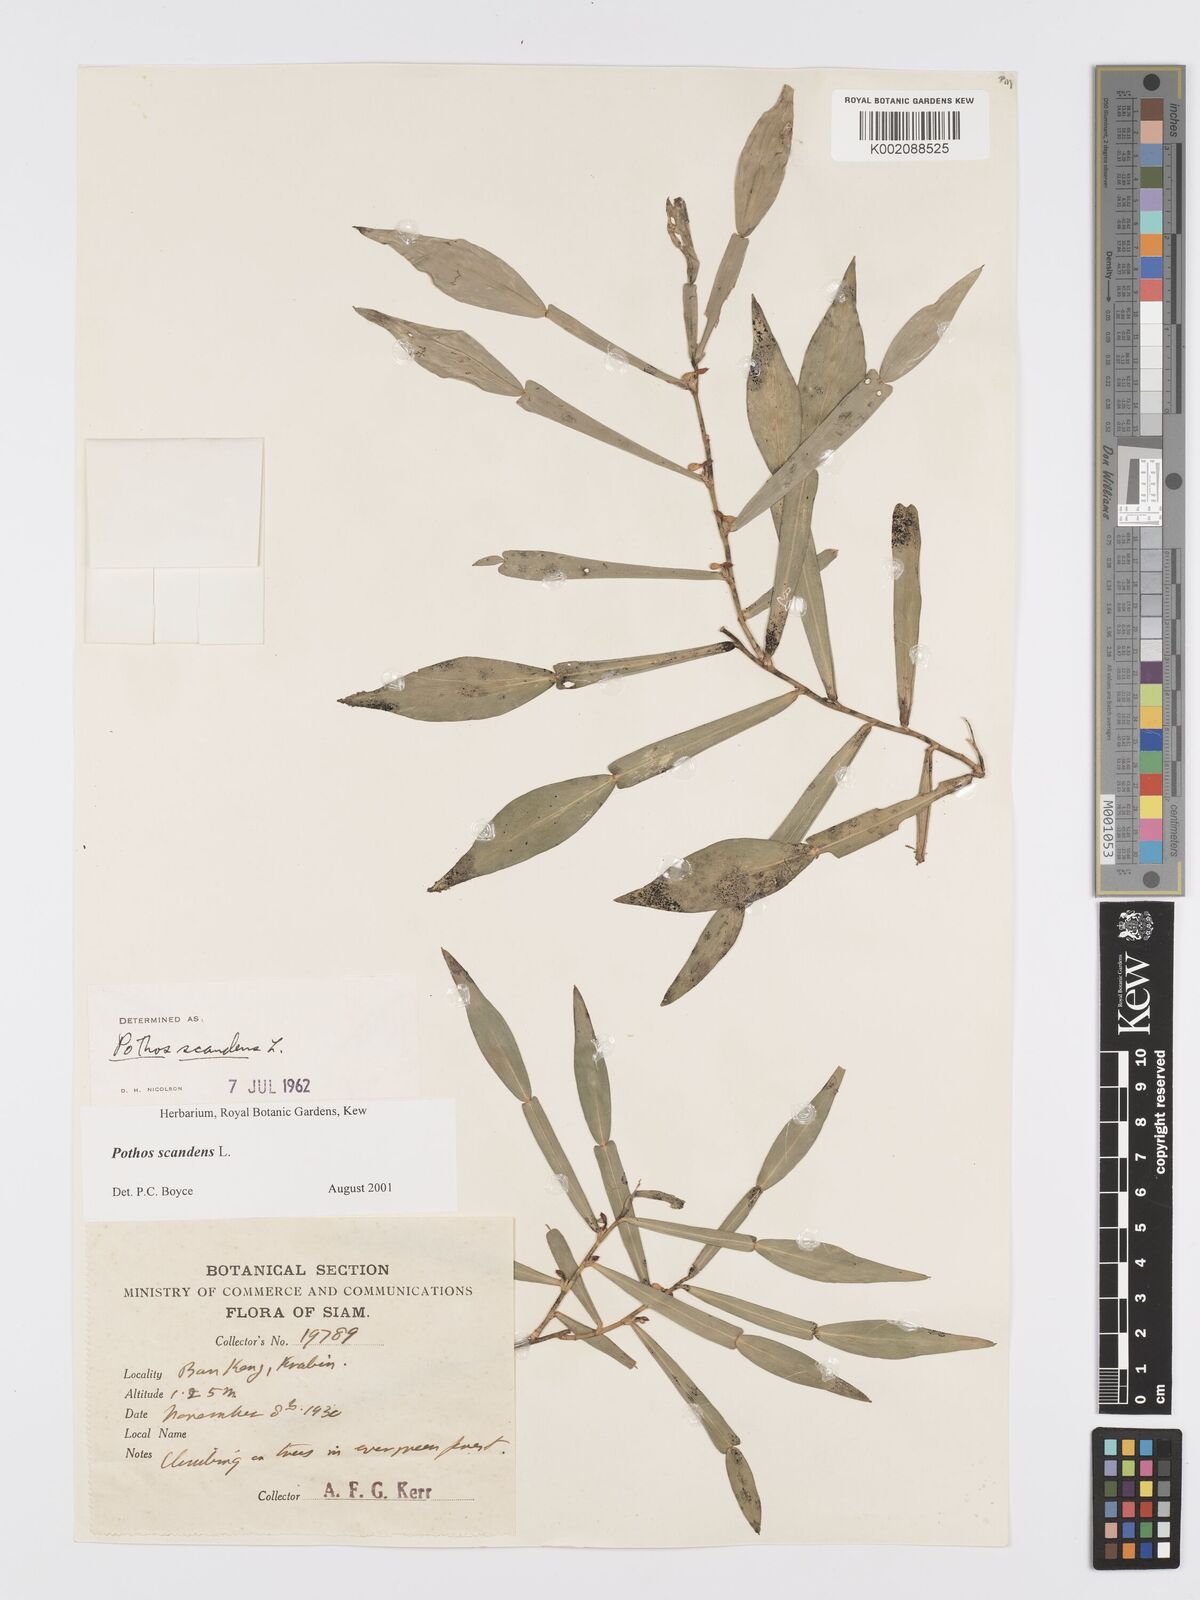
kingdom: Plantae
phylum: Tracheophyta
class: Liliopsida
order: Alismatales
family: Araceae
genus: Pothos
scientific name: Pothos scandens
